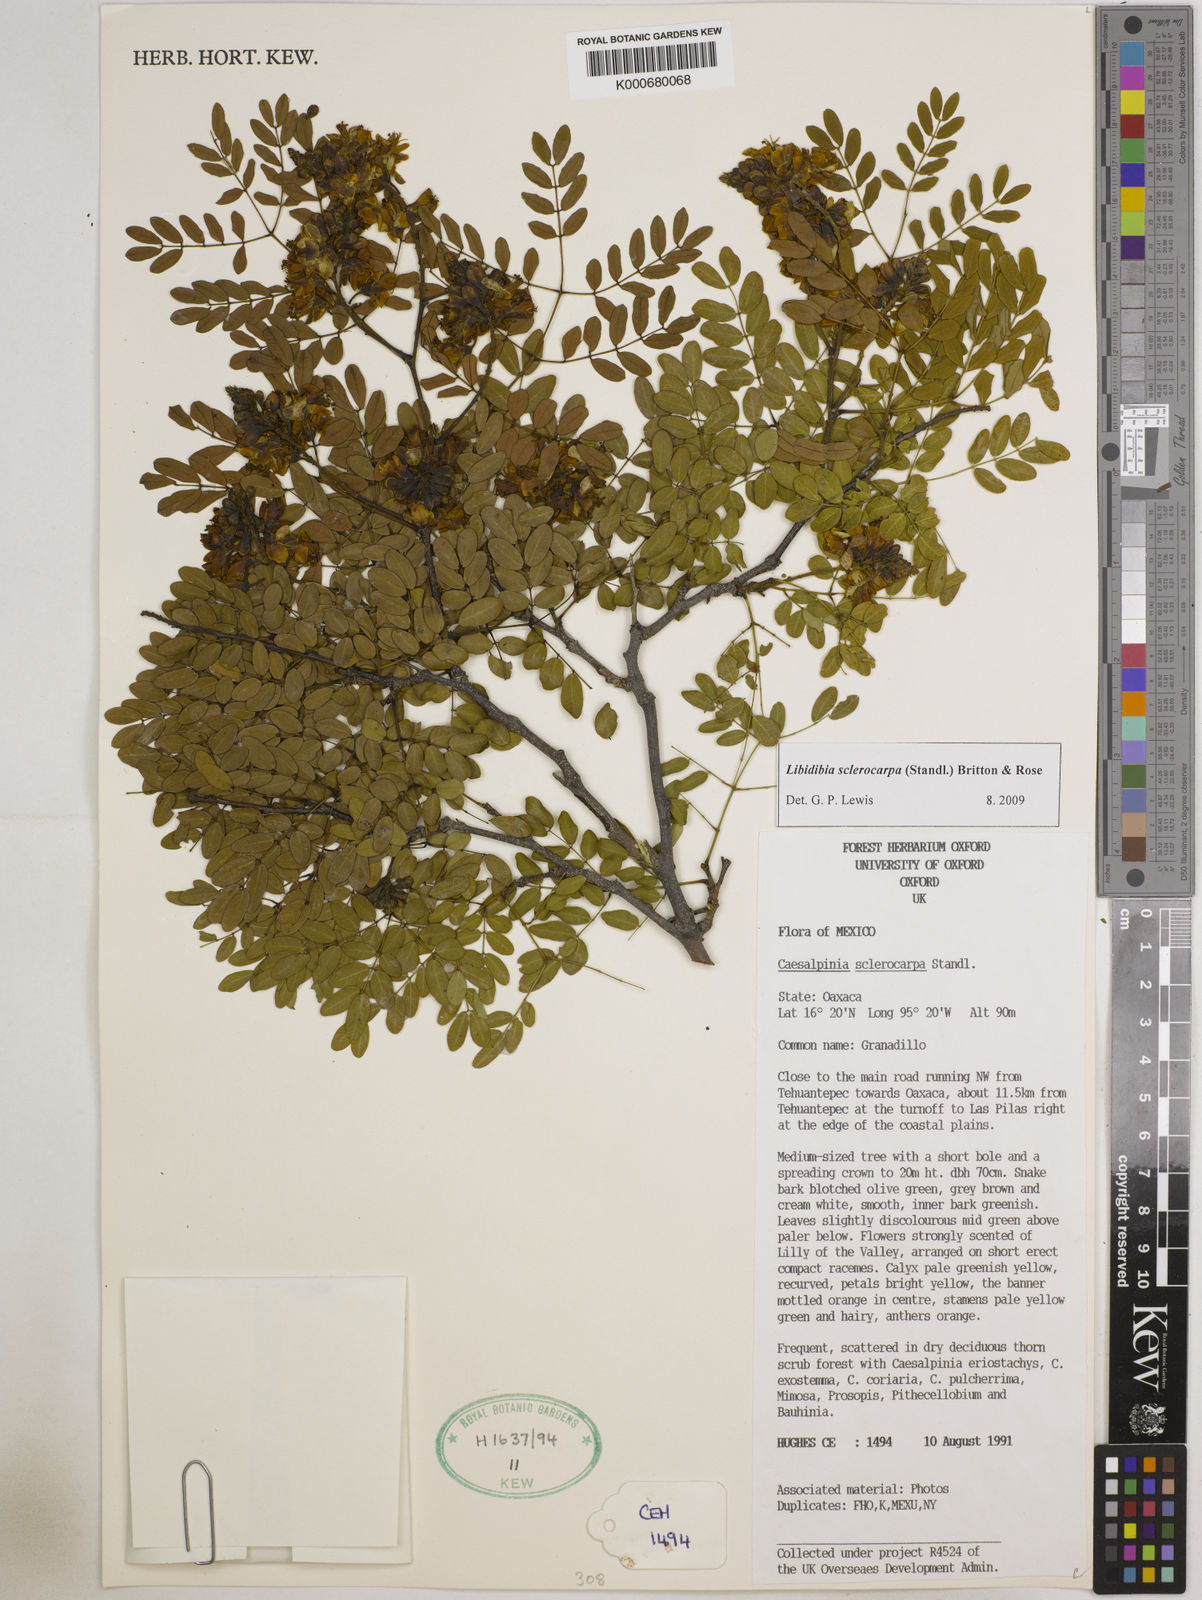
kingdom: Plantae
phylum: Tracheophyta
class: Magnoliopsida
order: Fabales
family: Fabaceae
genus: Libidibia
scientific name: Libidibia sclerocarpa
